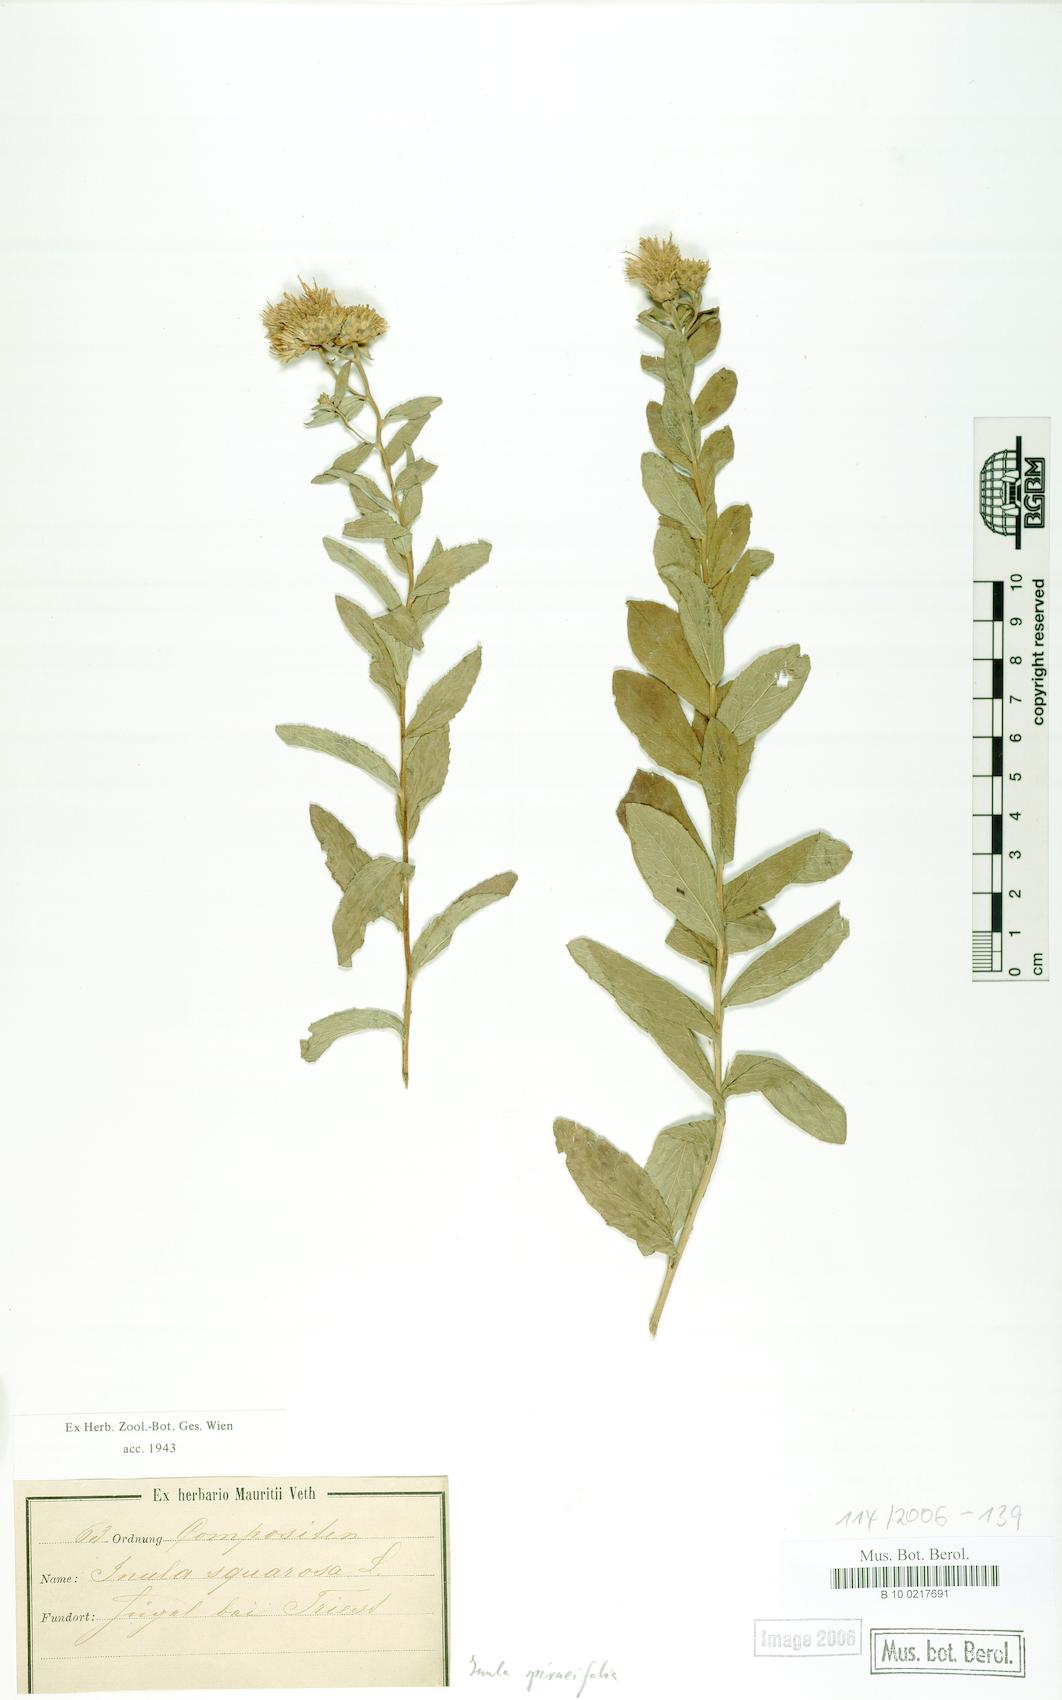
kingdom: Plantae
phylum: Tracheophyta
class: Magnoliopsida
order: Asterales
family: Asteraceae
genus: Pentanema
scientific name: Pentanema spiraeifolium
